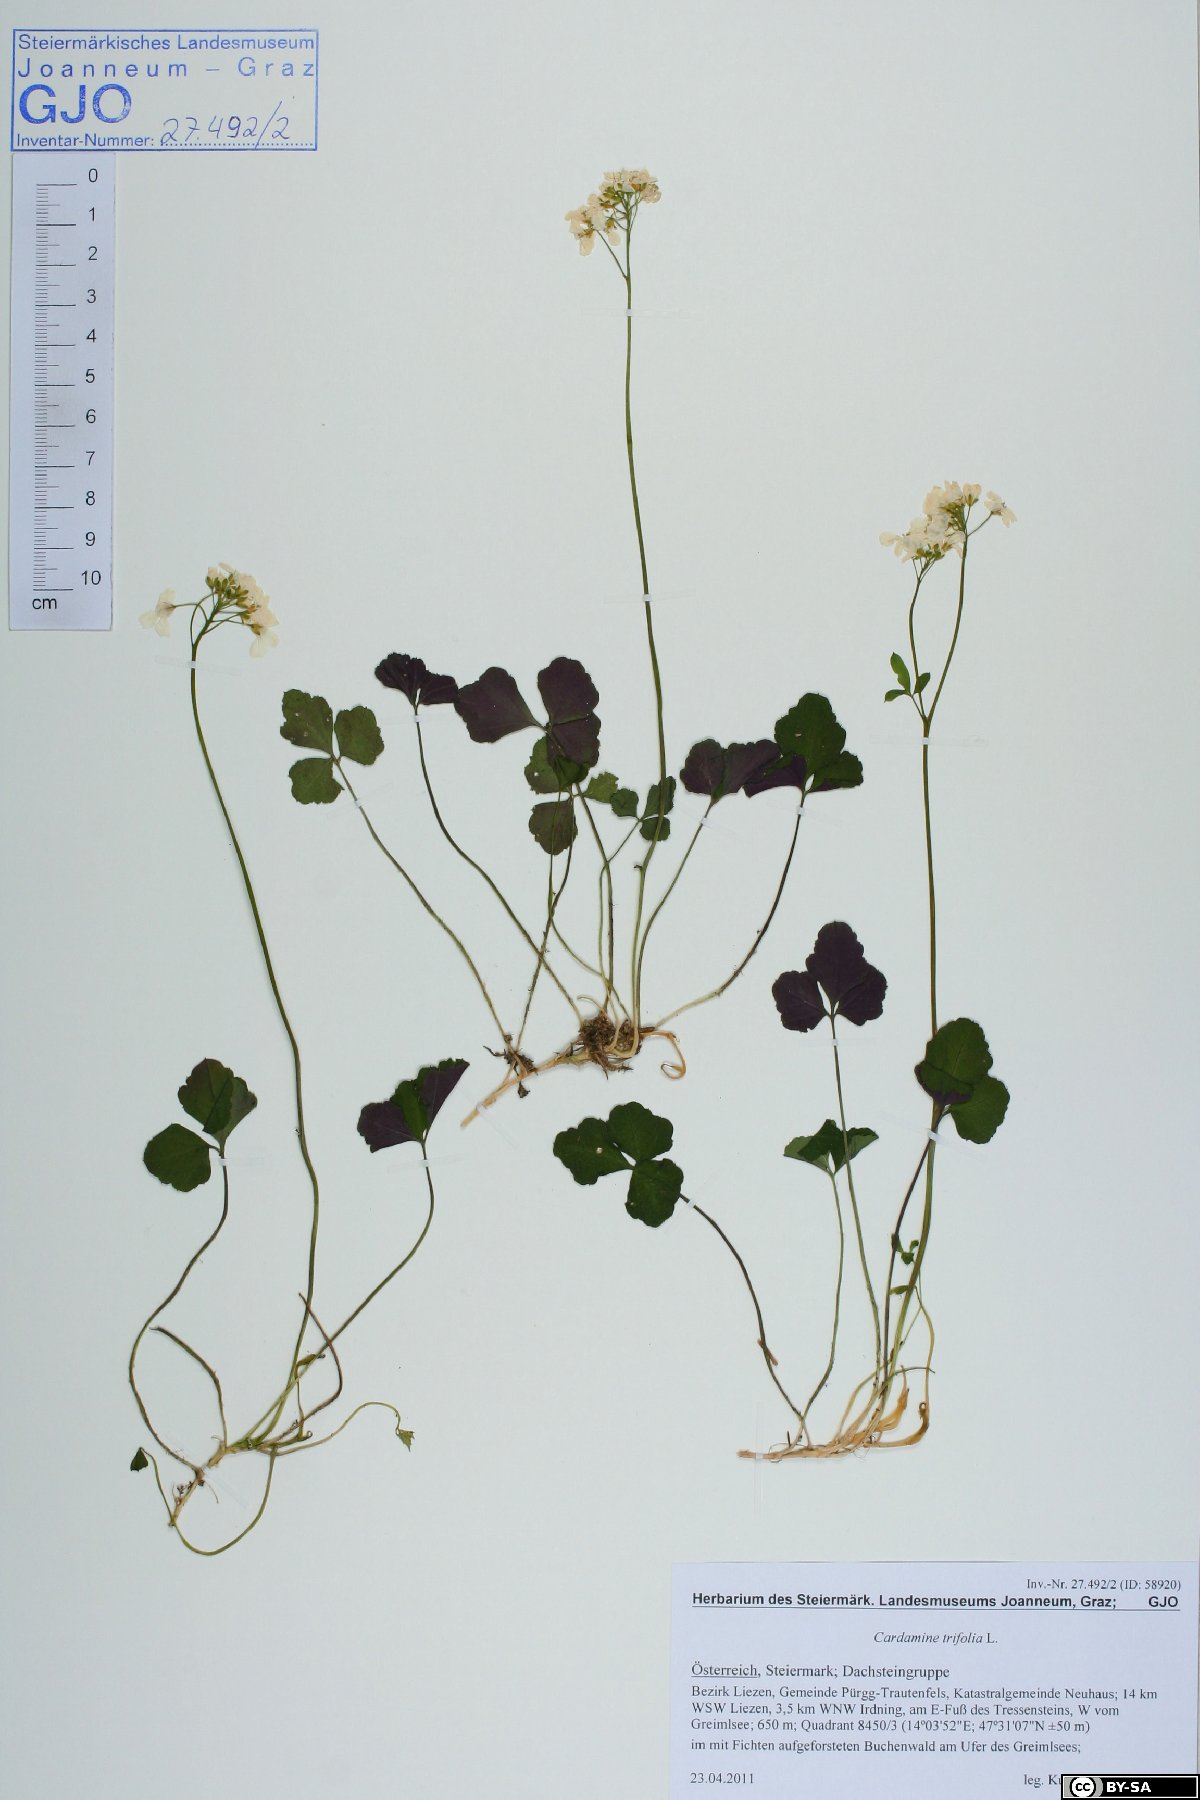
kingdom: Plantae
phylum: Tracheophyta
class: Magnoliopsida
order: Brassicales
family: Brassicaceae
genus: Cardamine
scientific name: Cardamine trifolia
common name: Trefoil cress
